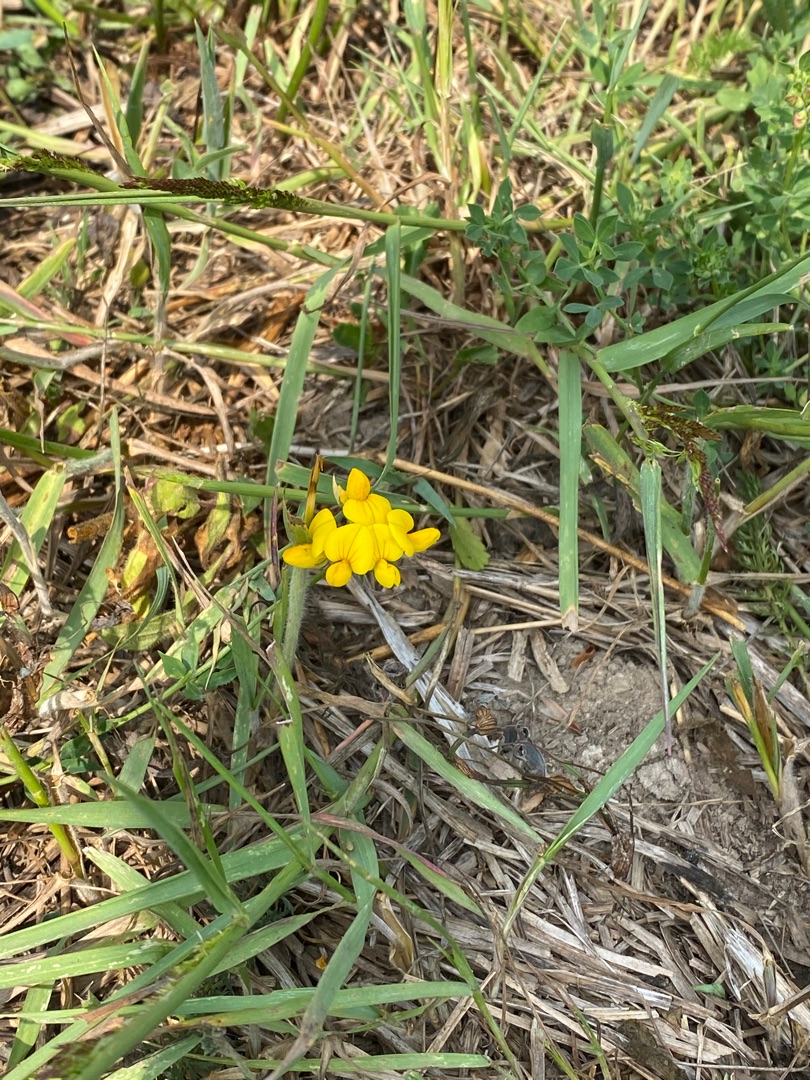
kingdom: Plantae
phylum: Tracheophyta
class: Magnoliopsida
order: Fabales
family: Fabaceae
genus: Lotus
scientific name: Lotus corniculatus
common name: Almindelig kællingetand
